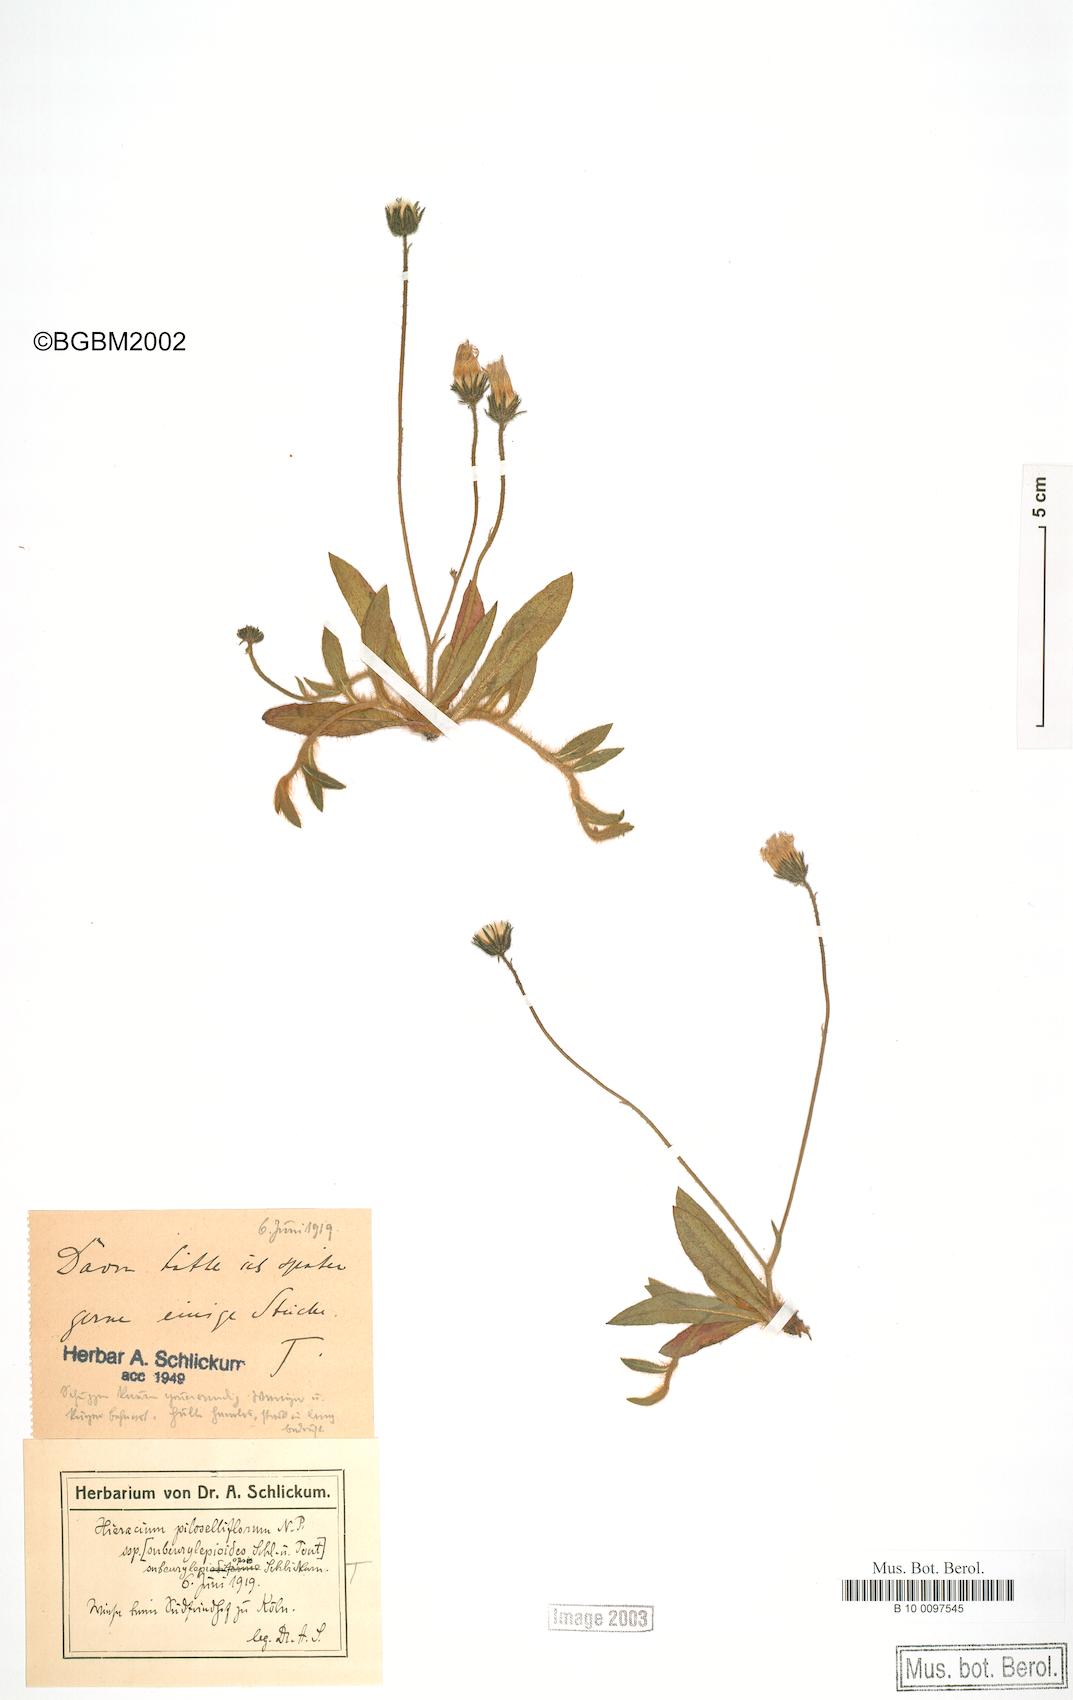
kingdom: Plantae
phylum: Tracheophyta
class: Magnoliopsida
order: Asterales
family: Asteraceae
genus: Pilosella
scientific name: Pilosella piloselliflora
